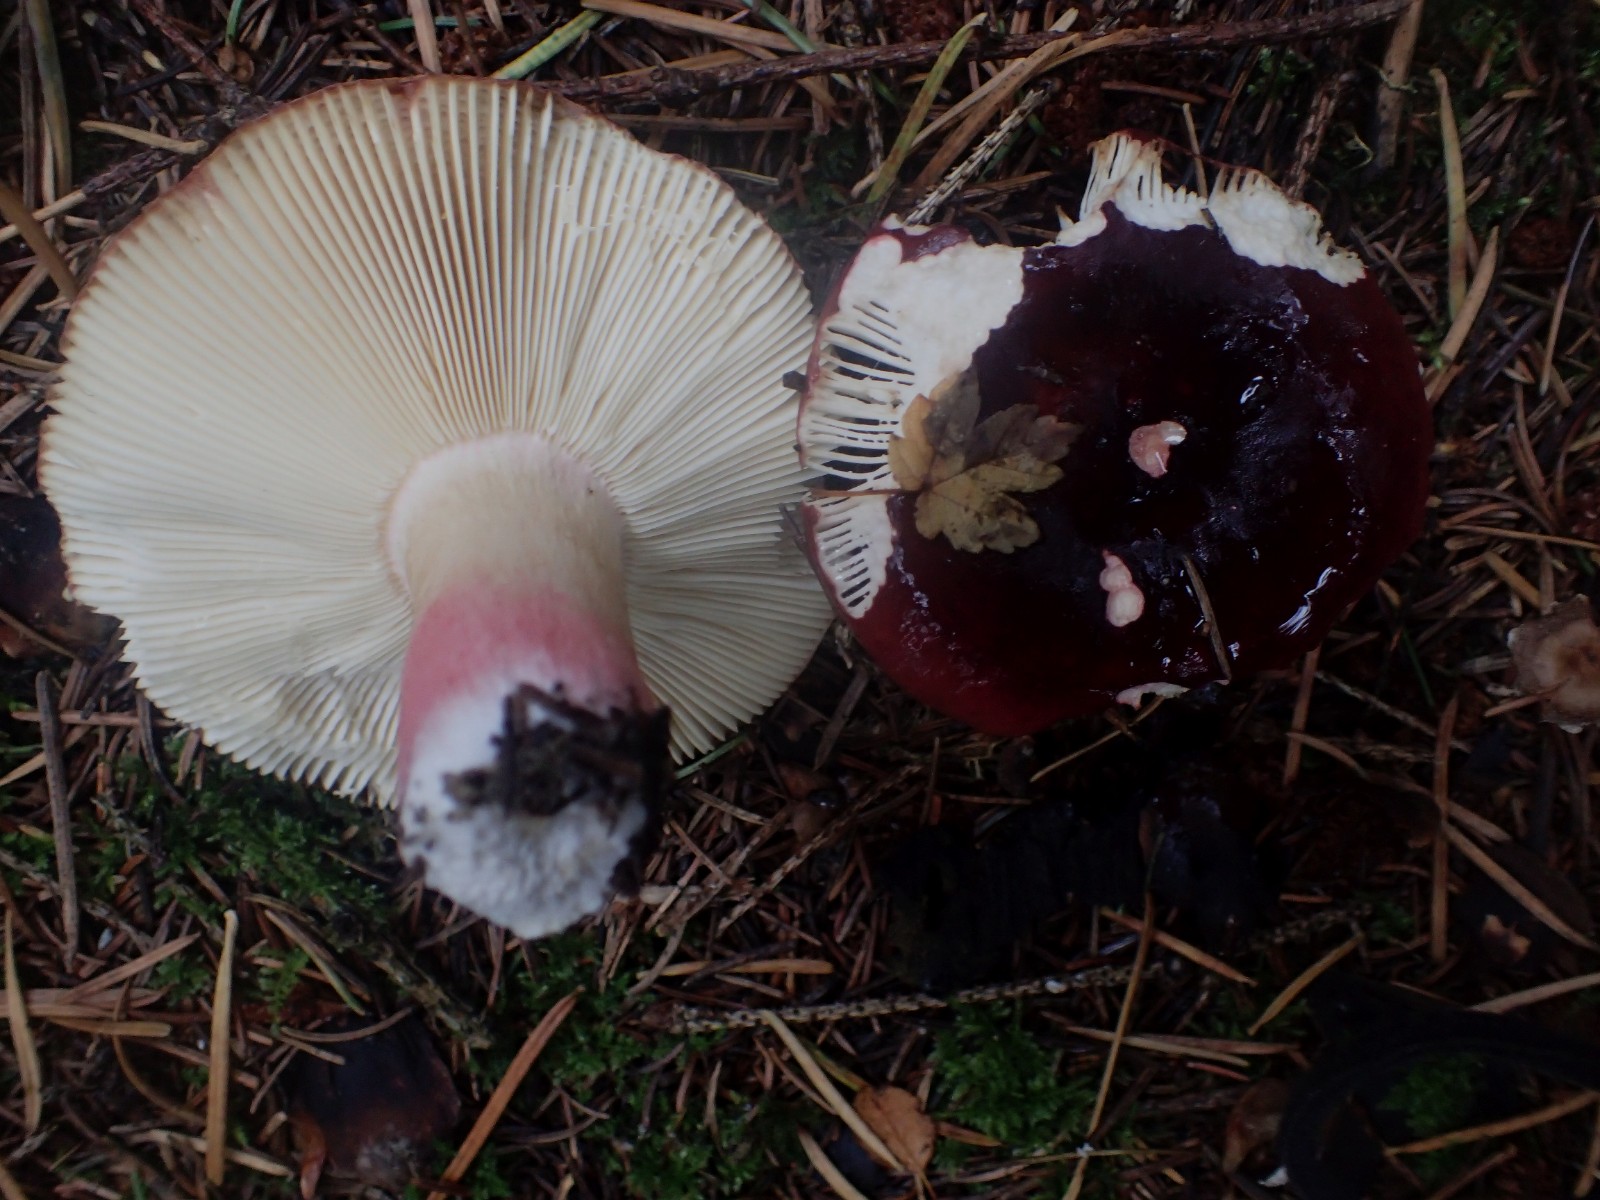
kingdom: Fungi
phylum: Basidiomycota
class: Agaricomycetes
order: Russulales
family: Russulaceae
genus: Russula
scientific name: Russula xerampelina
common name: hummer-skørhat
